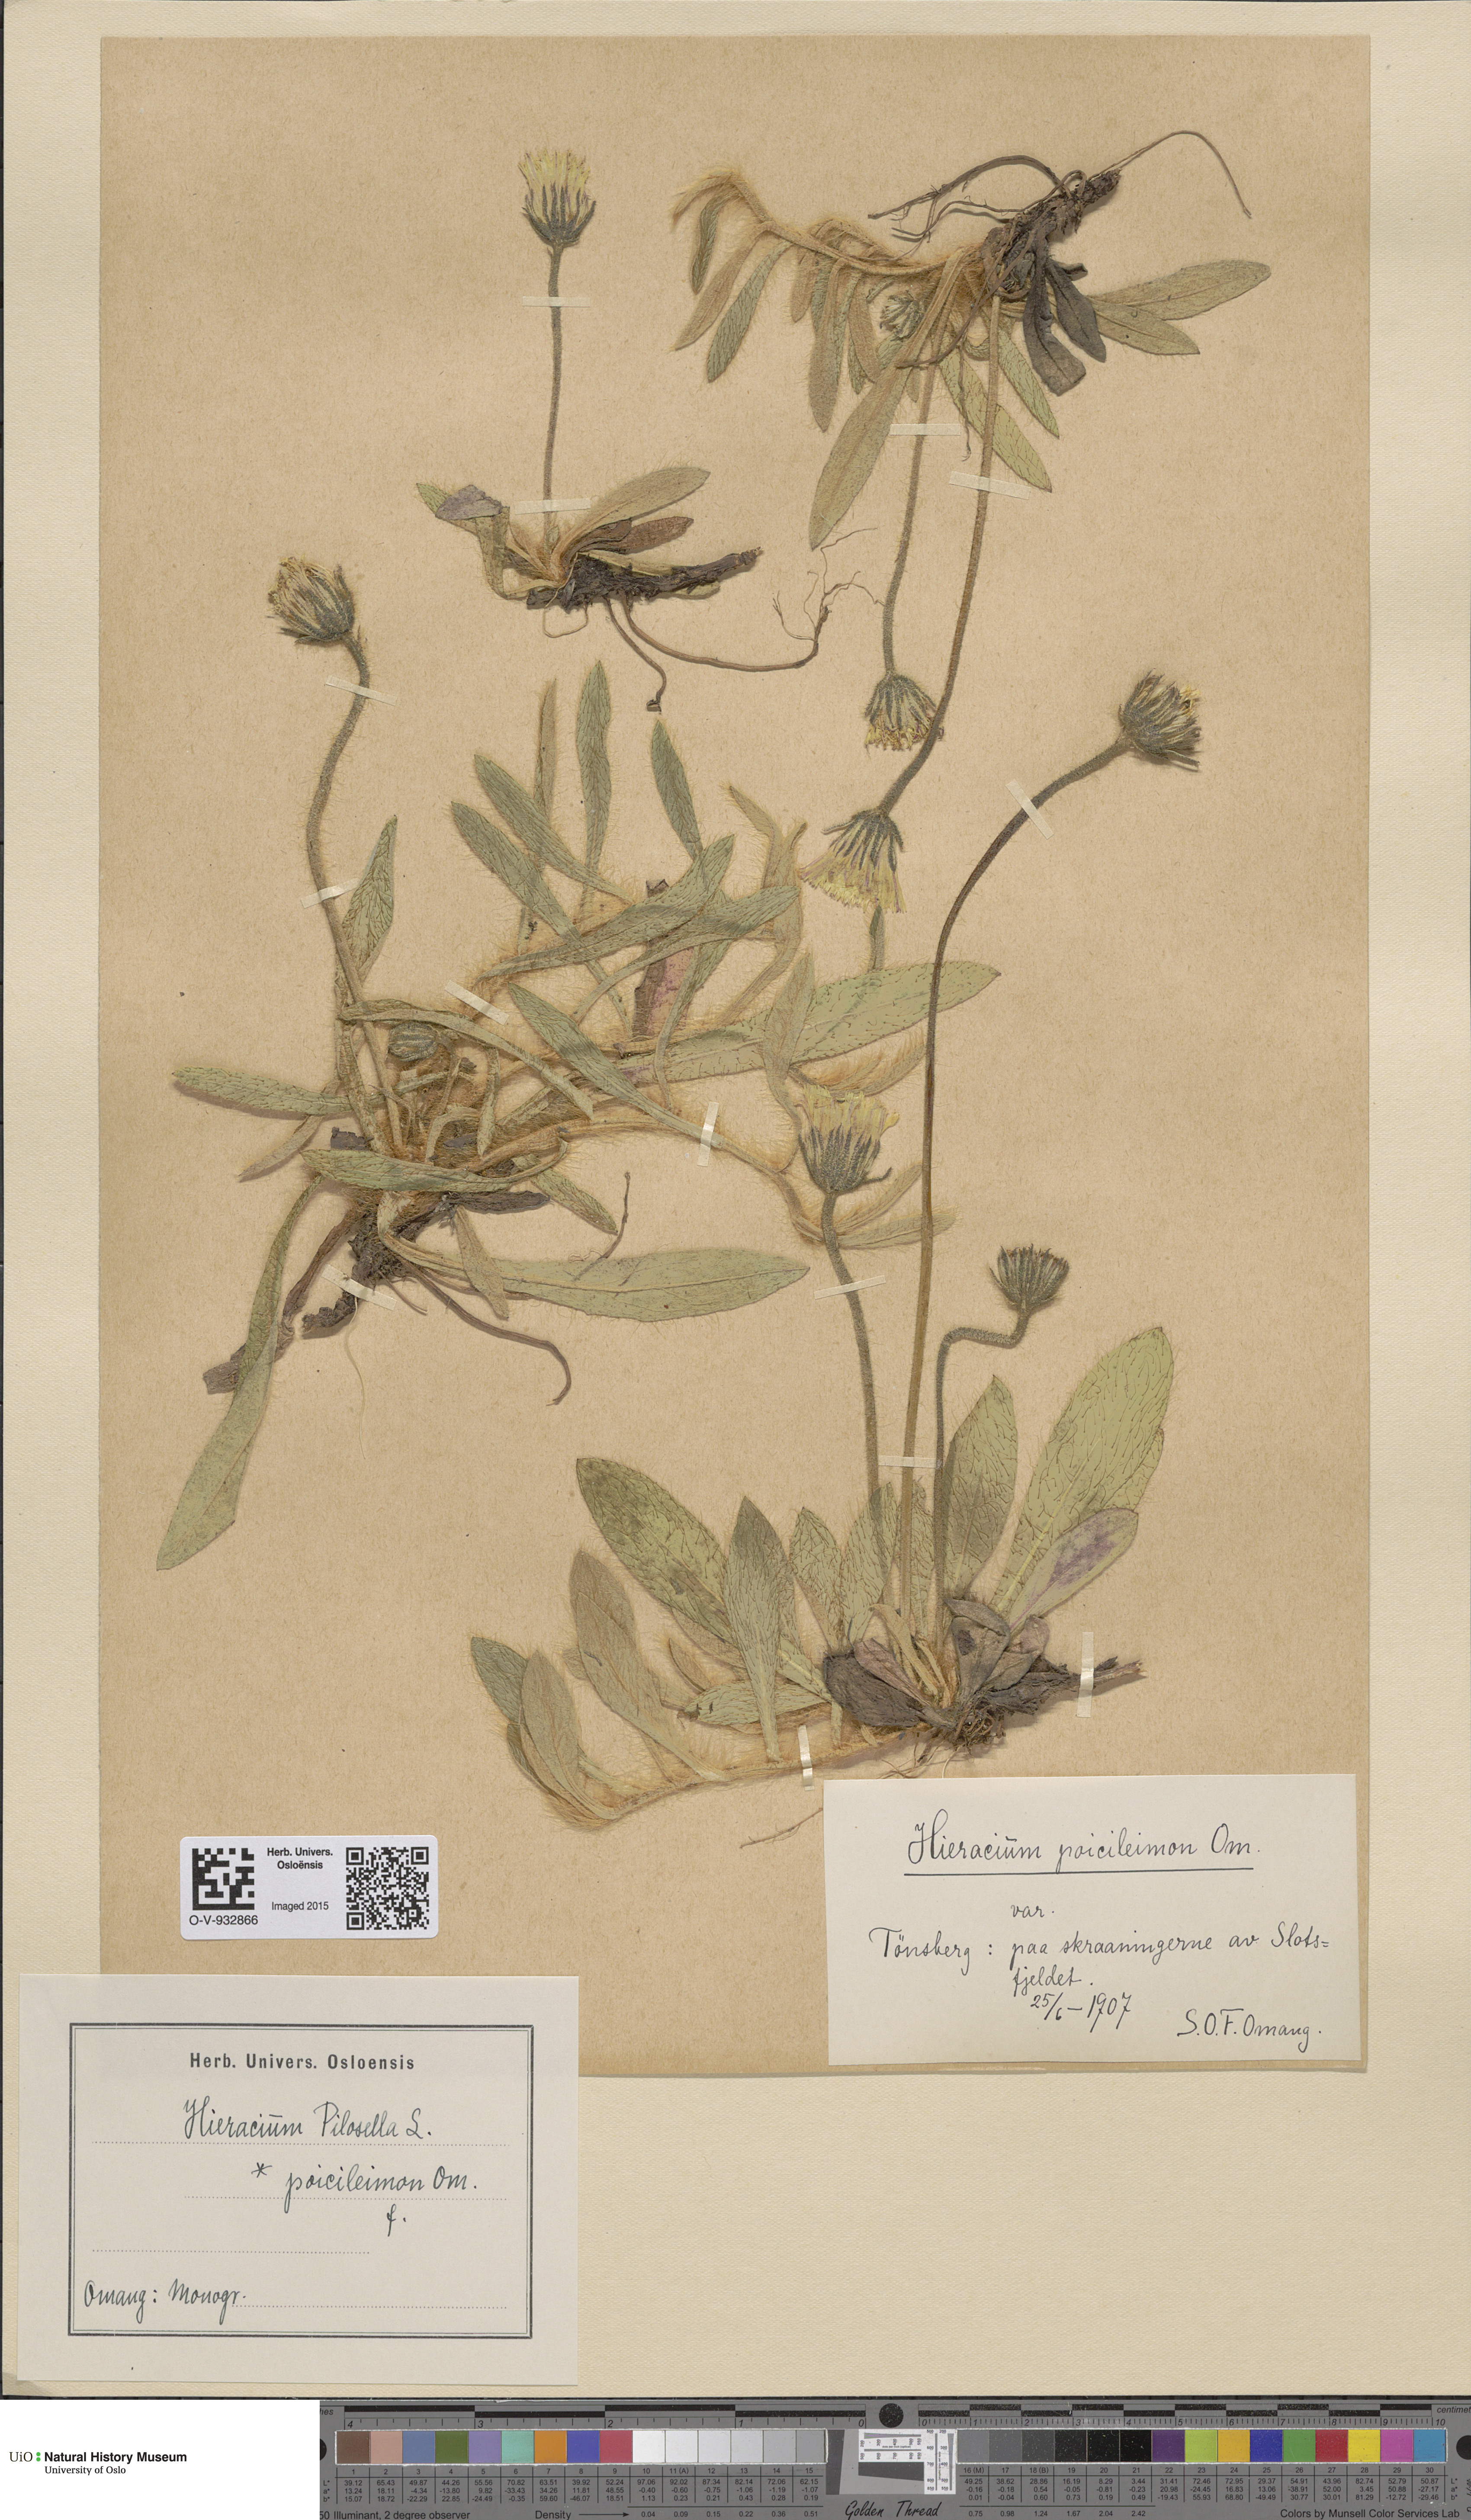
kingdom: Plantae
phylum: Tracheophyta
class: Magnoliopsida
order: Asterales
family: Asteraceae
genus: Pilosella
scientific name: Pilosella officinarum
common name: Mouse-ear hawkweed
